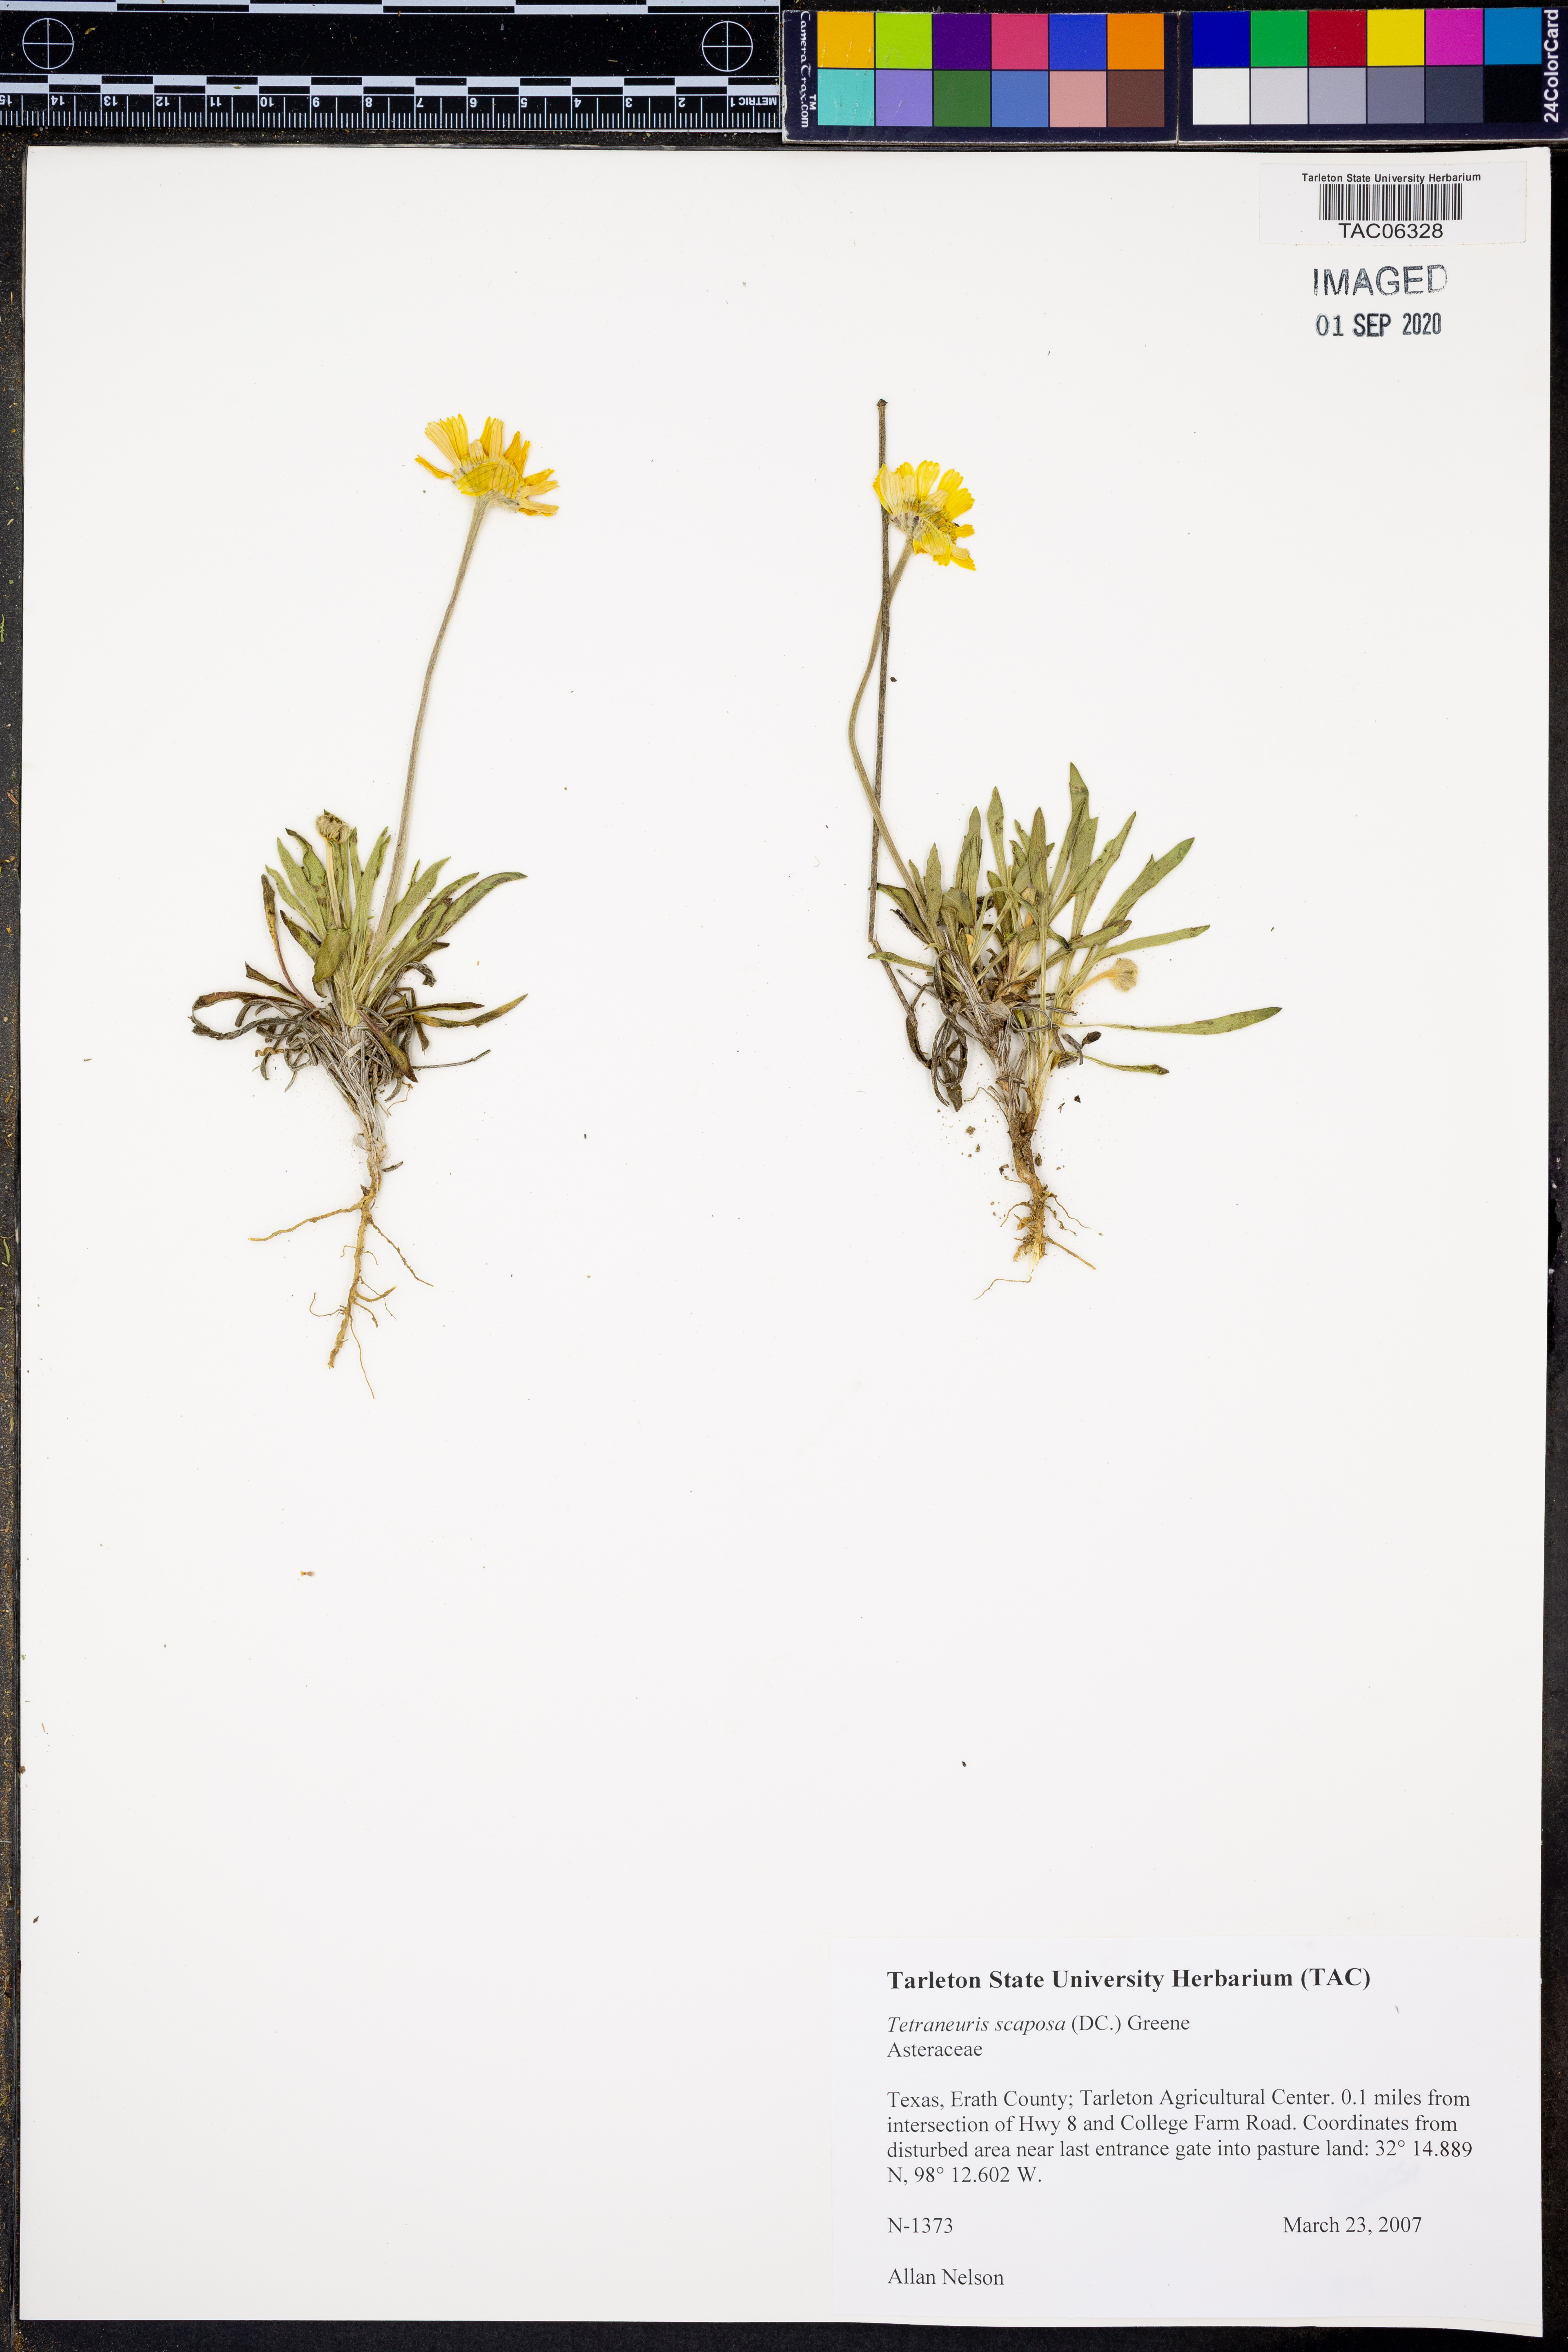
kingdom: Plantae
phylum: Tracheophyta
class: Magnoliopsida
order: Asterales
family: Asteraceae
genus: Tetraneuris
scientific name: Tetraneuris scaposa
